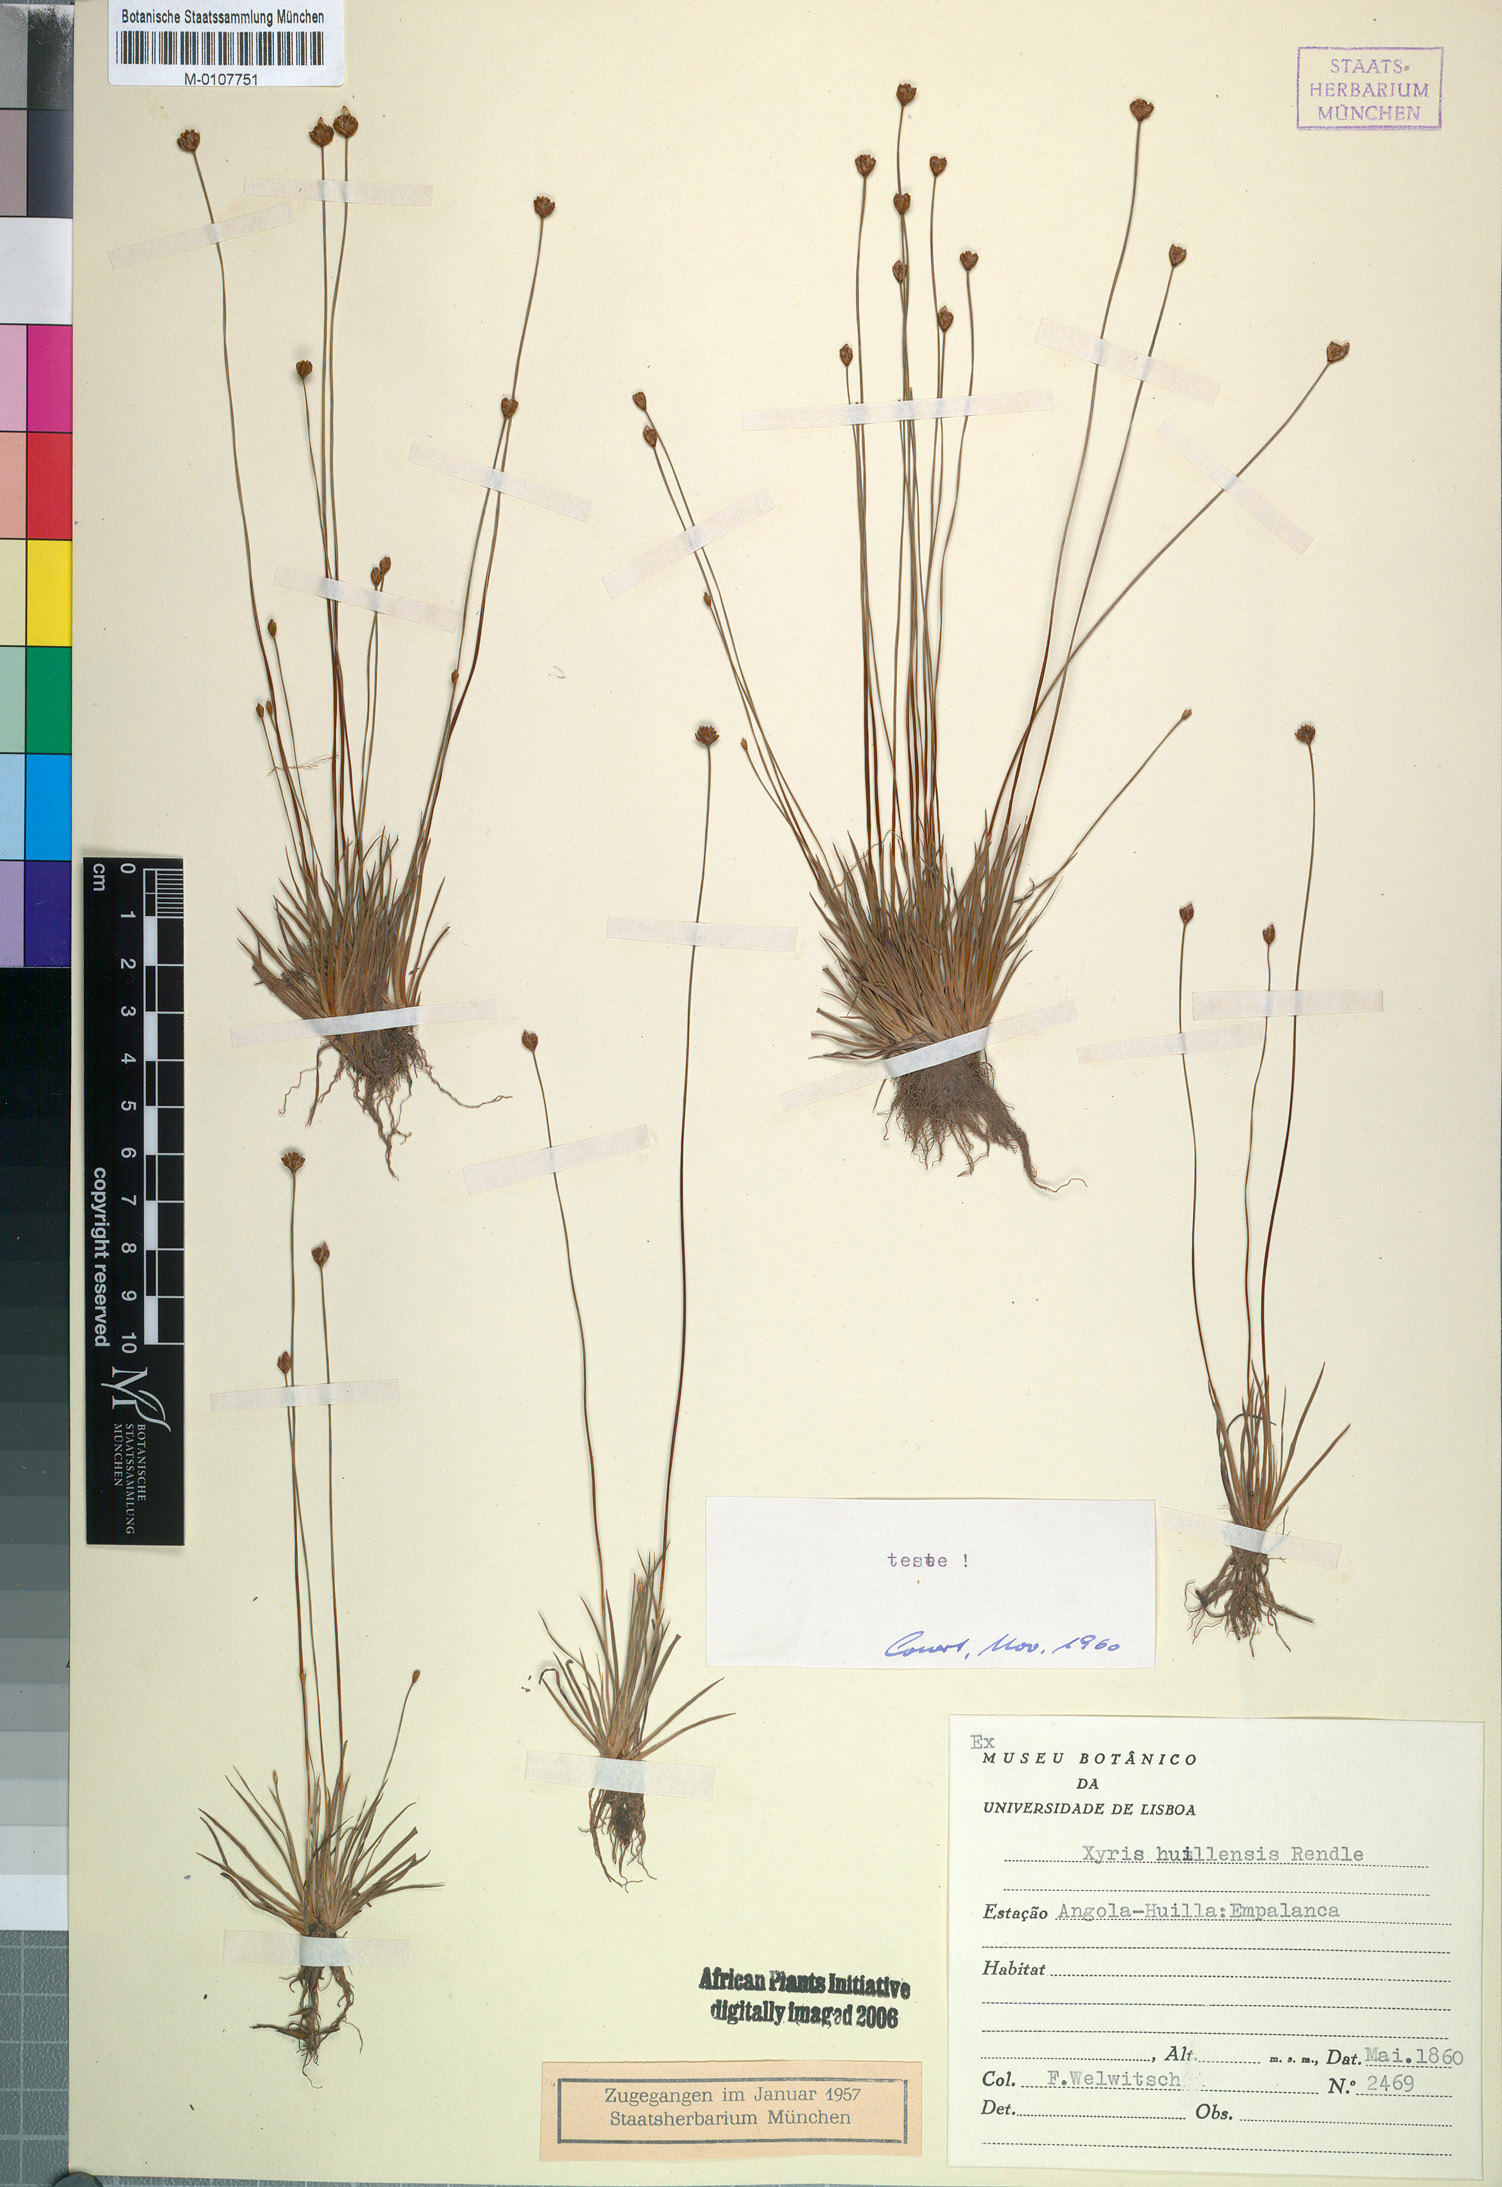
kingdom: Plantae
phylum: Tracheophyta
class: Liliopsida
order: Poales
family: Xyridaceae
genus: Xyris
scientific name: Xyris huillensis
